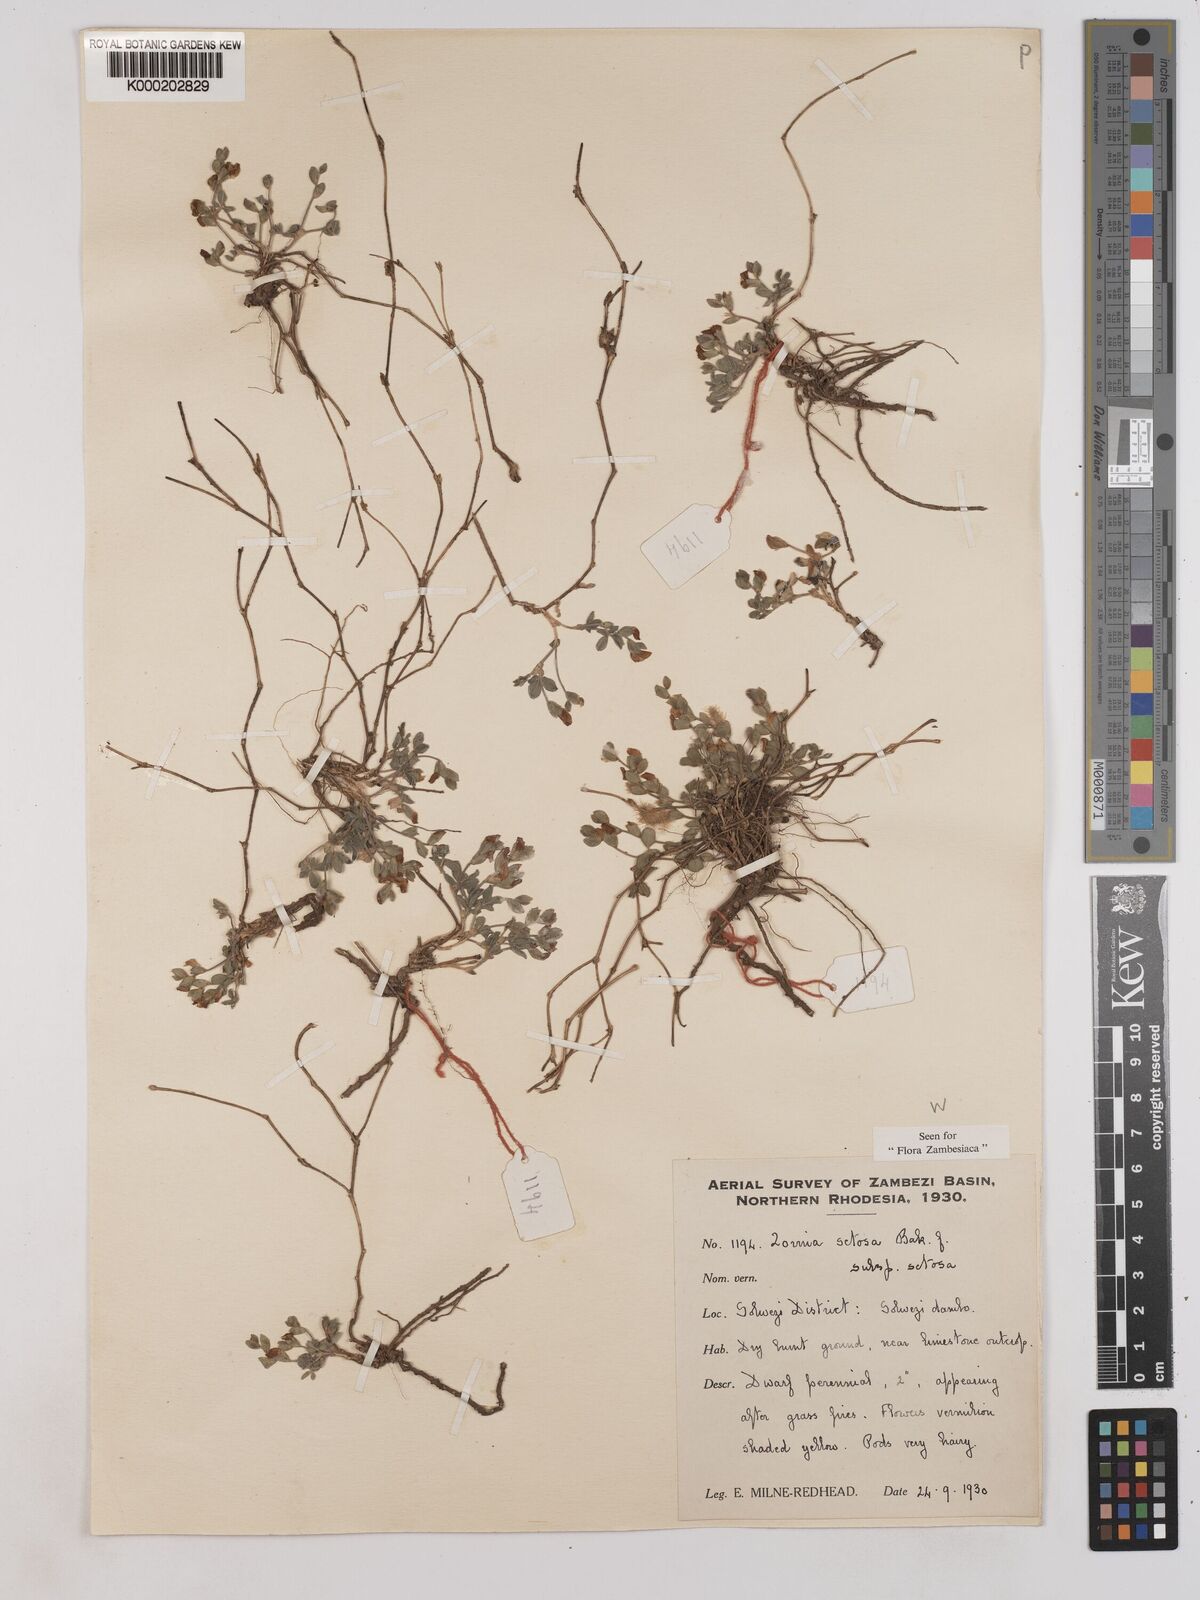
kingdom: Plantae
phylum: Tracheophyta
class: Magnoliopsida
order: Fabales
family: Fabaceae
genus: Zornia
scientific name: Zornia setosa
